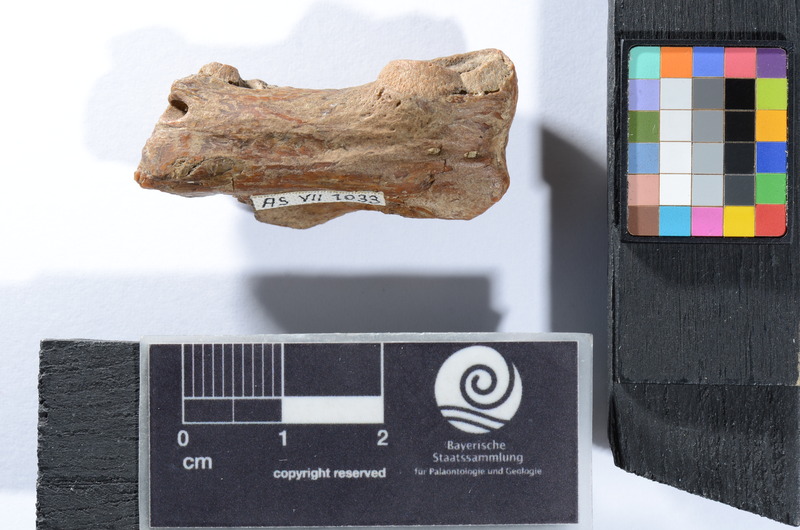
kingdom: Animalia
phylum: Chordata
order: Cypriniformes
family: Cyprinidae
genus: Capitodus
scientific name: Capitodus
